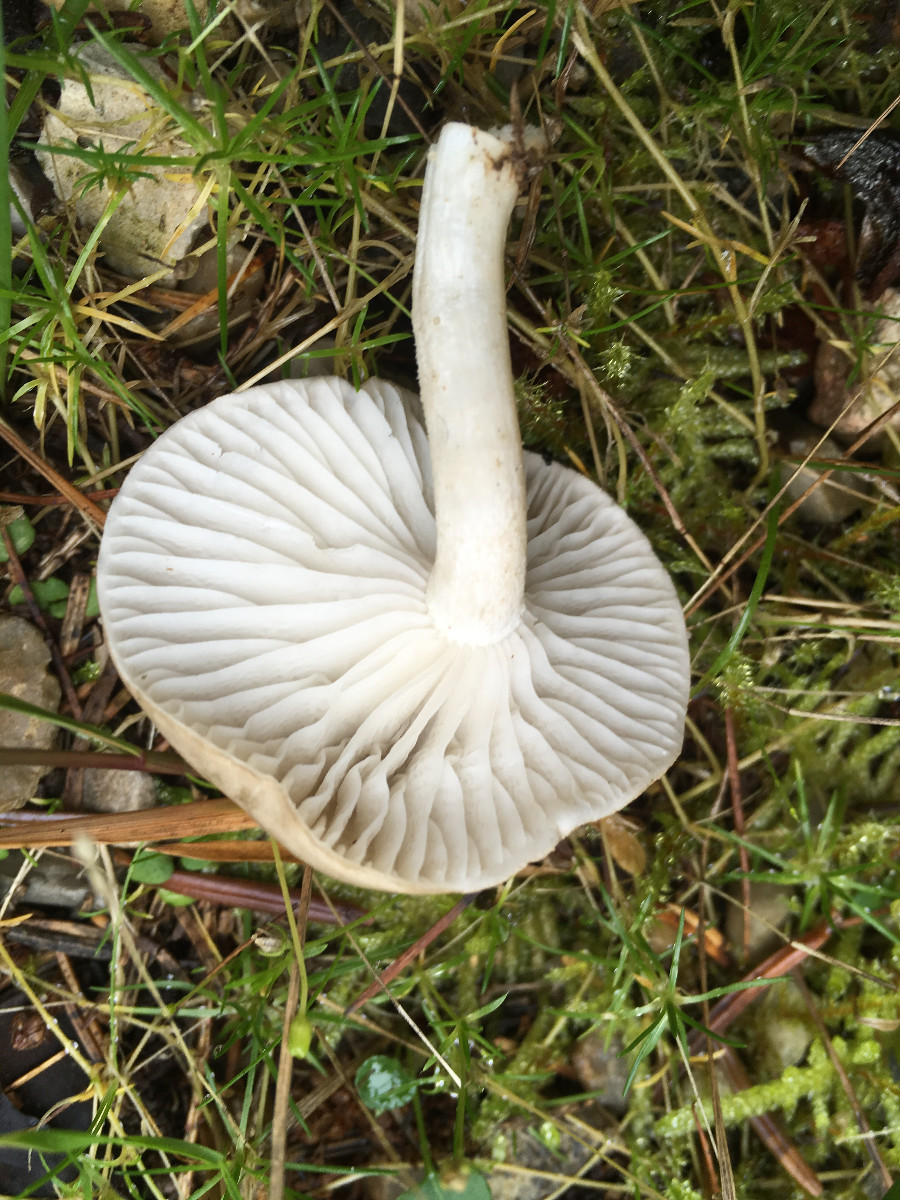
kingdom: Fungi
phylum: Basidiomycota
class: Agaricomycetes
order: Agaricales
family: Hygrophoraceae
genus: Hygrophorus
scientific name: Hygrophorus agathosmus
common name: vellugtende sneglehat
